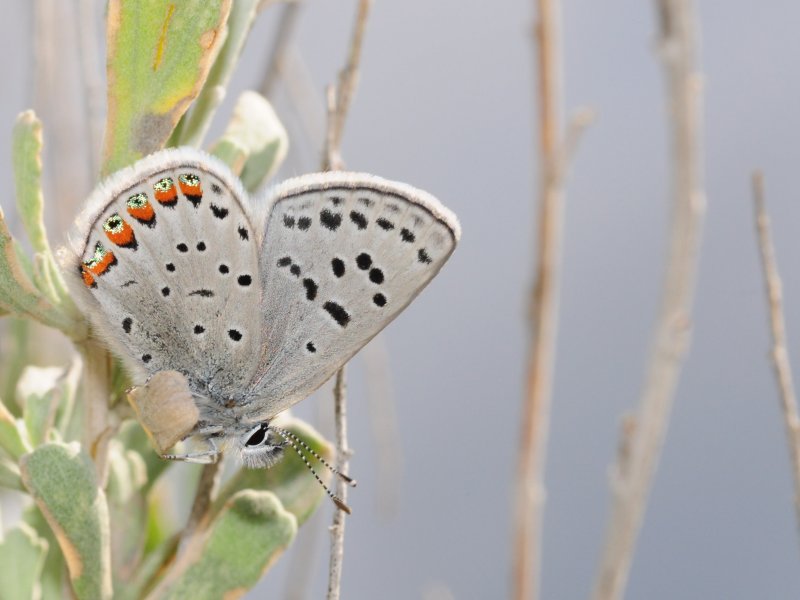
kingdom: Animalia
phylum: Arthropoda
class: Insecta
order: Lepidoptera
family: Lycaenidae
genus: Plebejus
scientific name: Plebejus lupini
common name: Lupine Blue
